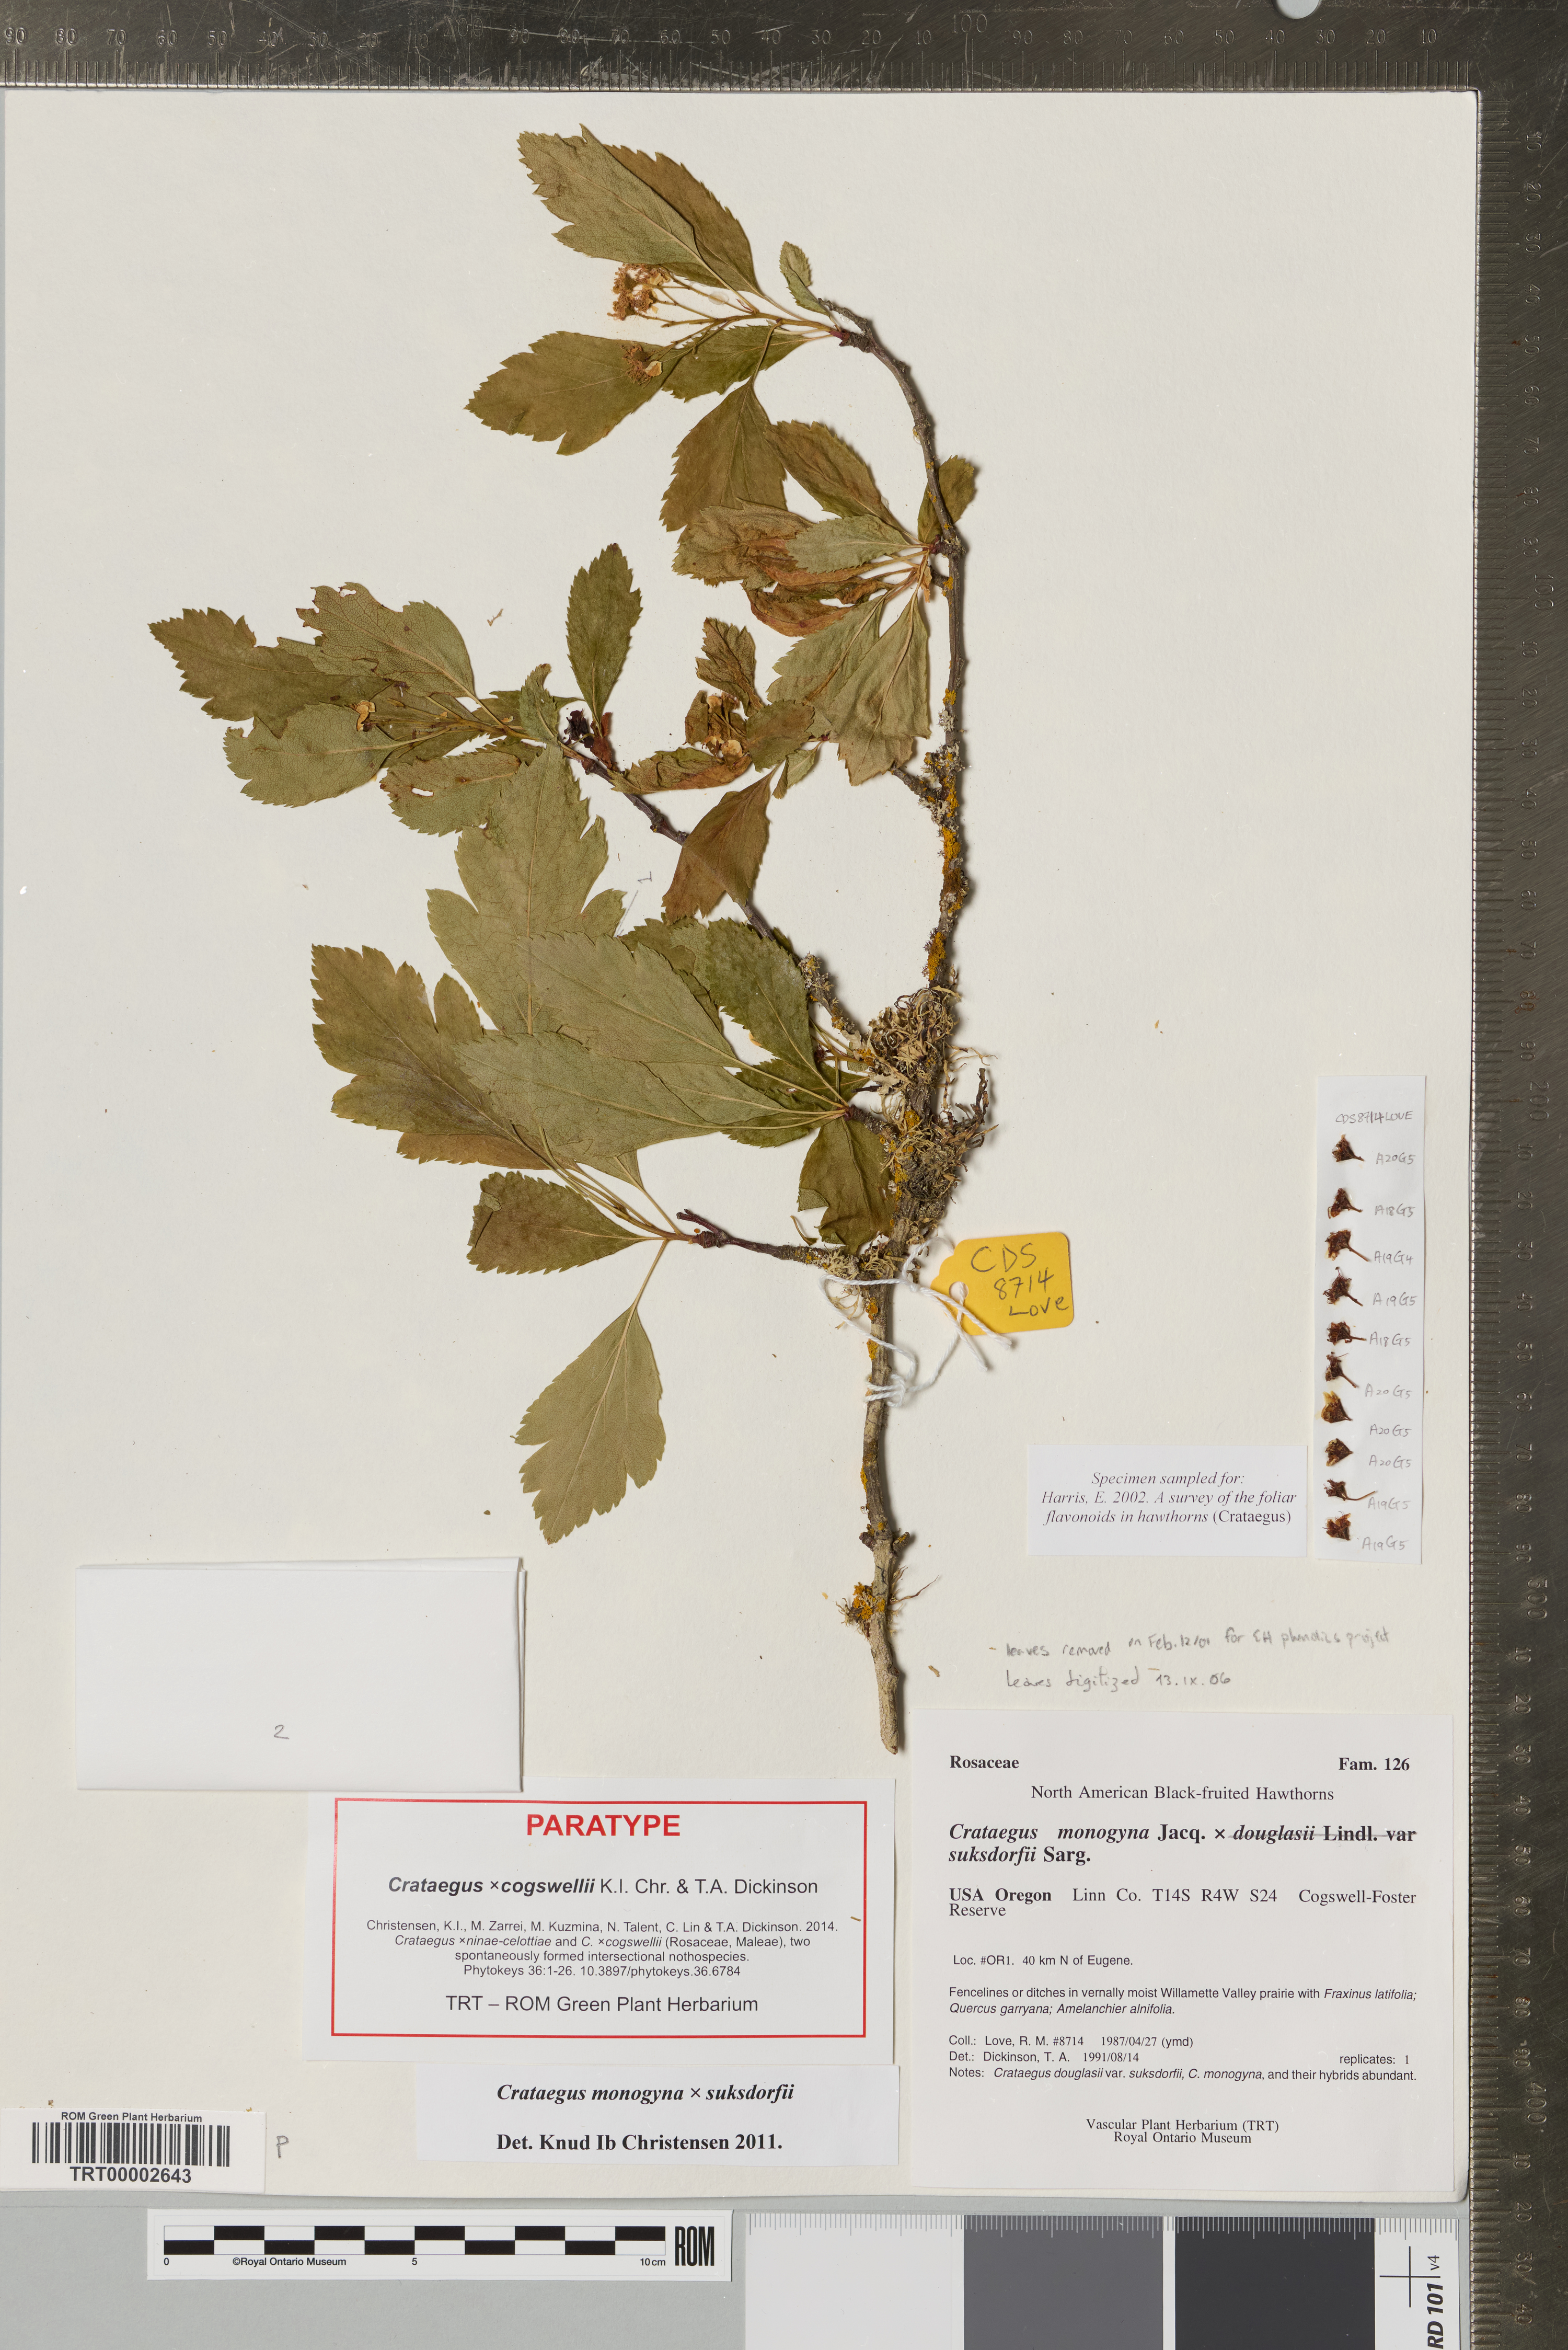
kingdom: Plantae
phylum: Tracheophyta
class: Magnoliopsida
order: Rosales
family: Rosaceae
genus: Crataegus
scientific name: Crataegus
